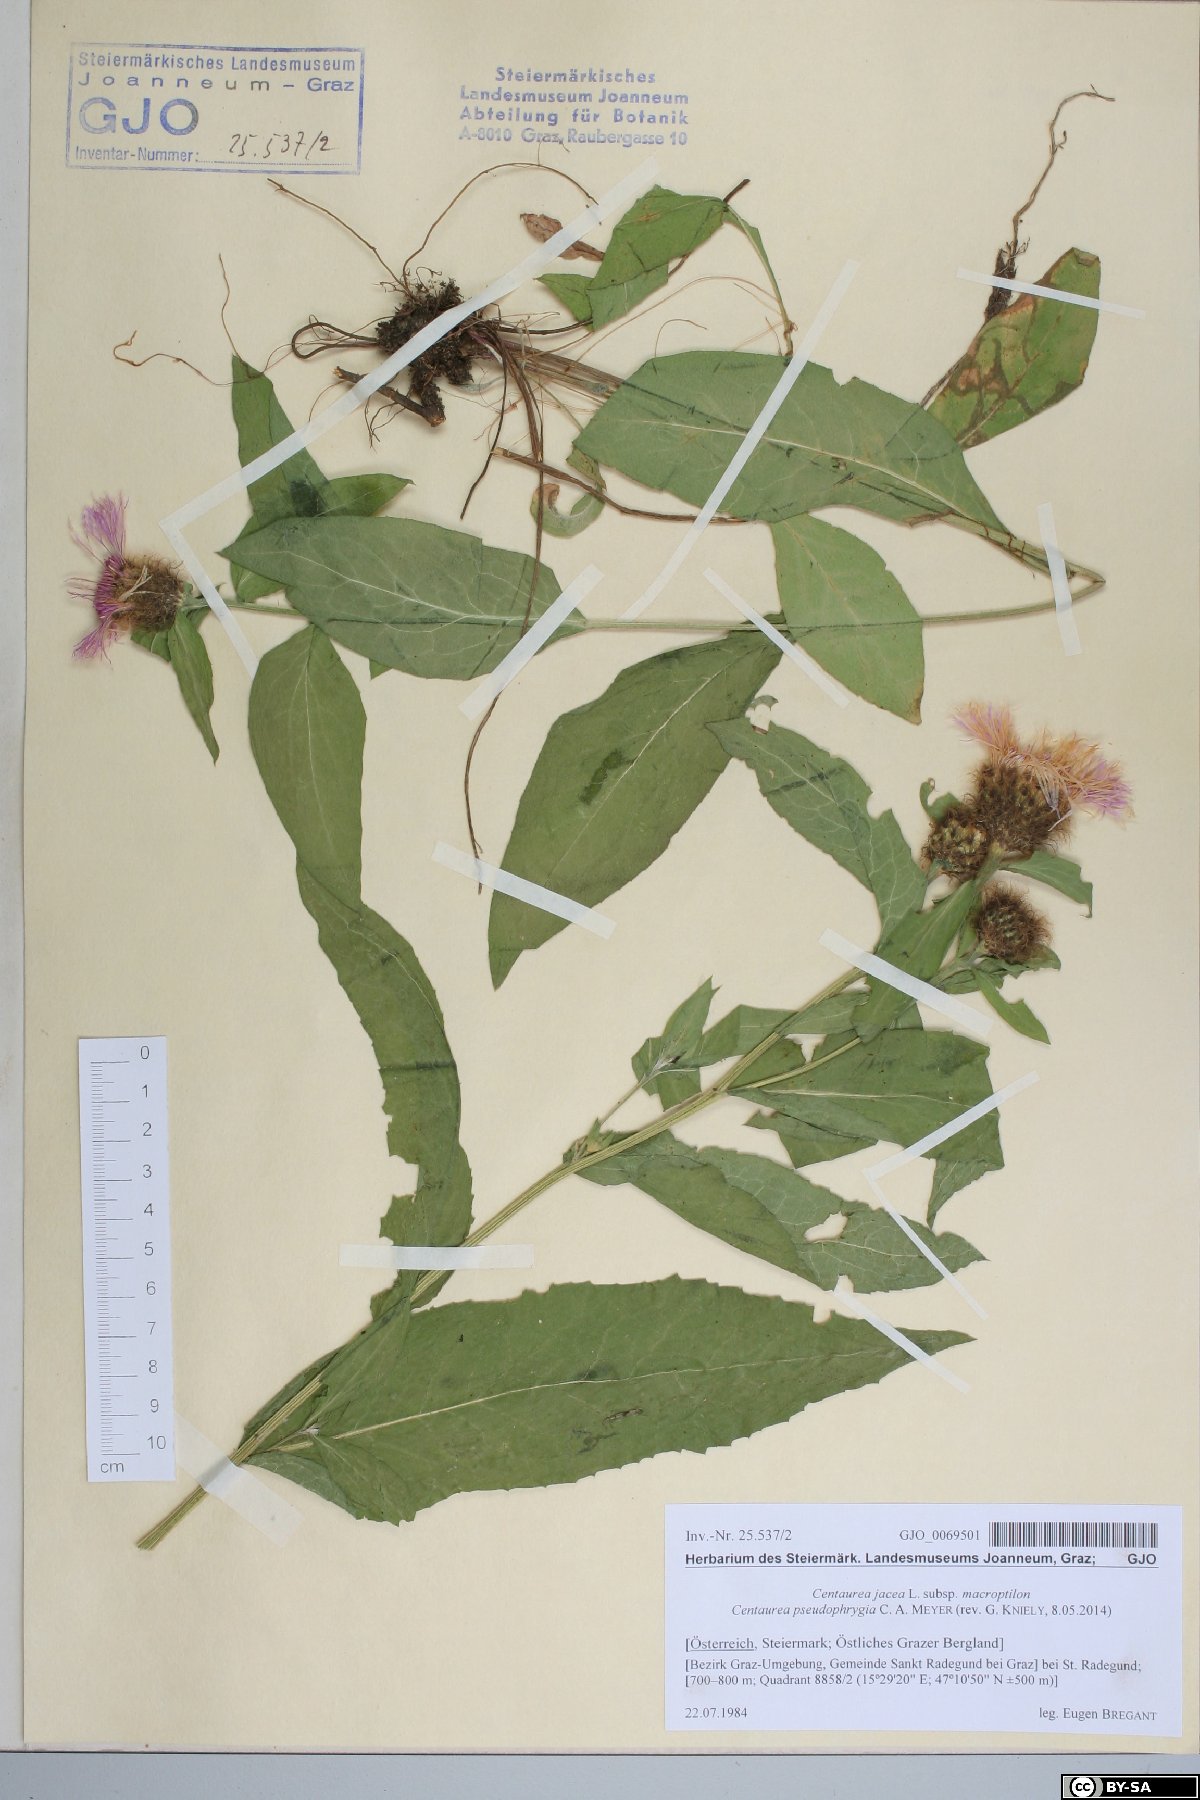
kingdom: Plantae
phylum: Tracheophyta
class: Magnoliopsida
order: Asterales
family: Asteraceae
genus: Centaurea
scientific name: Centaurea pseudophrygia
